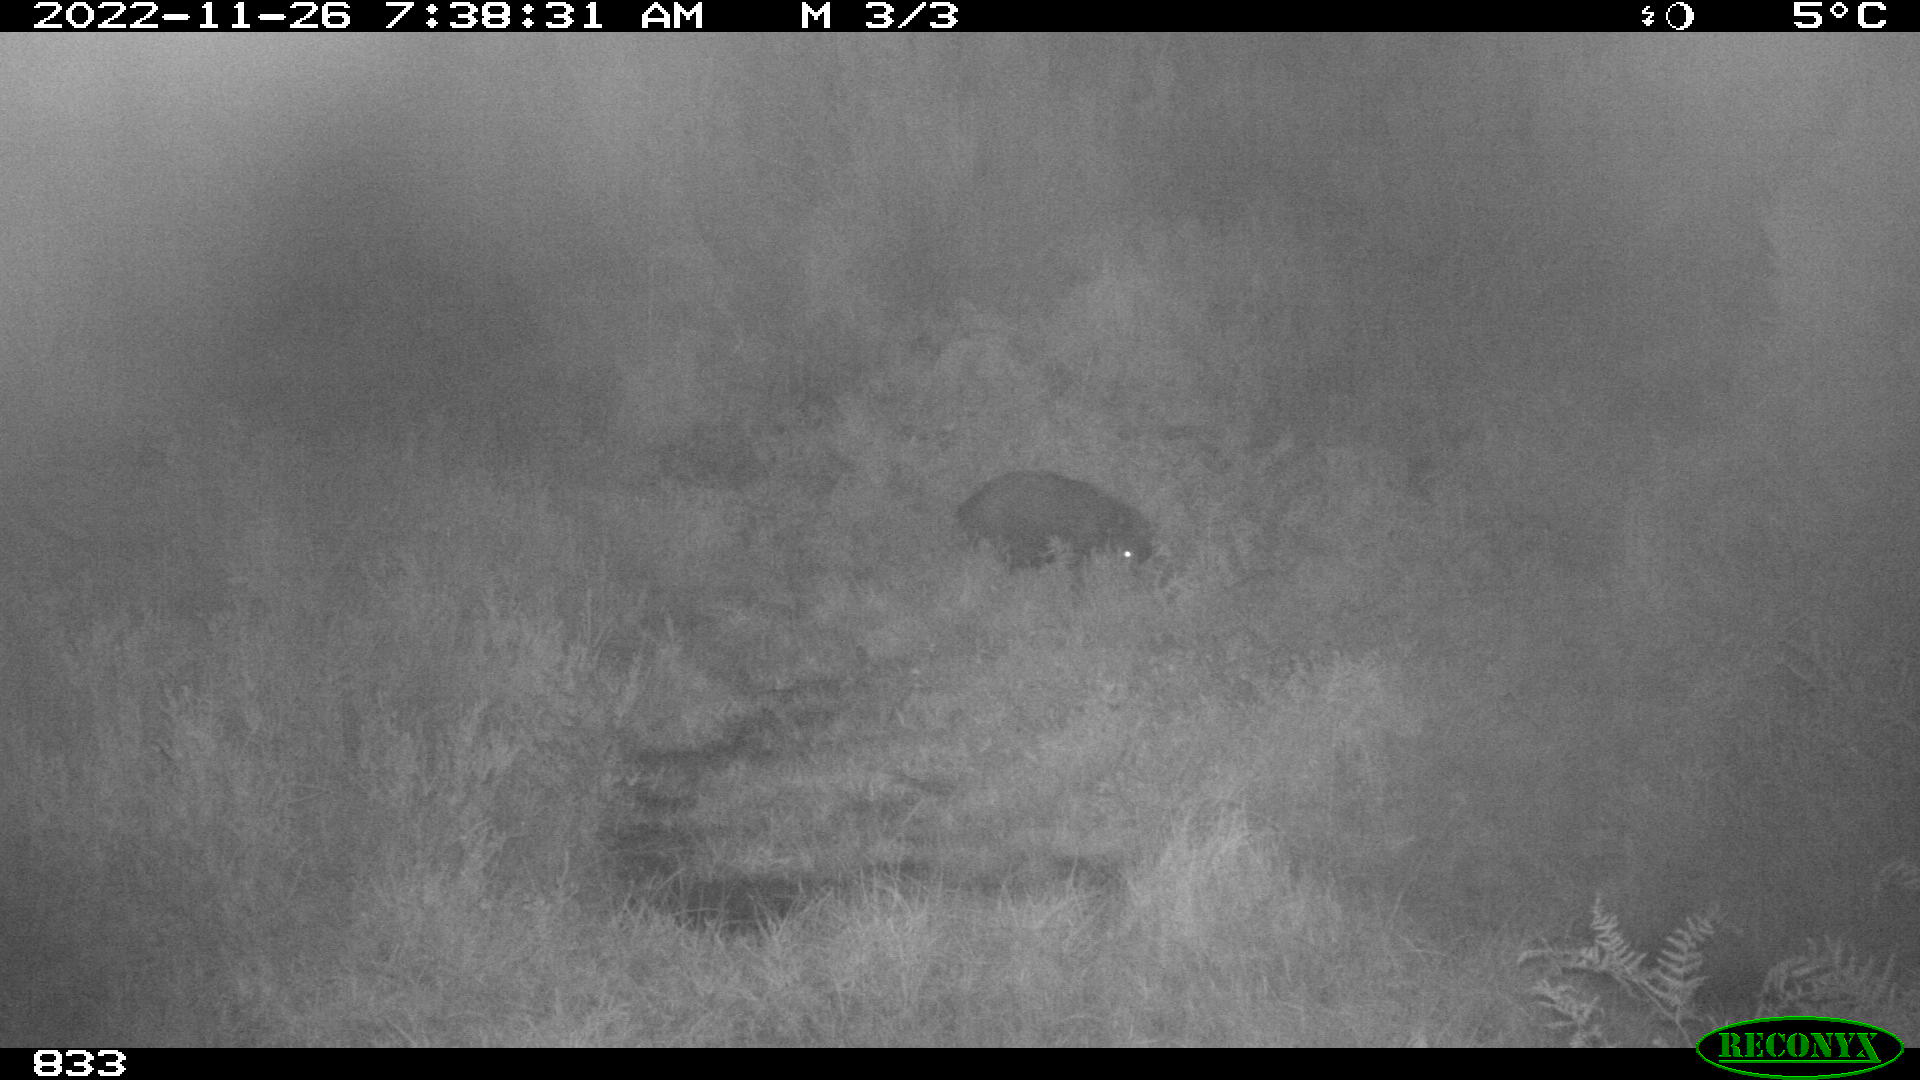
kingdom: Animalia
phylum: Chordata
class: Mammalia
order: Artiodactyla
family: Suidae
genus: Sus
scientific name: Sus scrofa
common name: Wild boar
